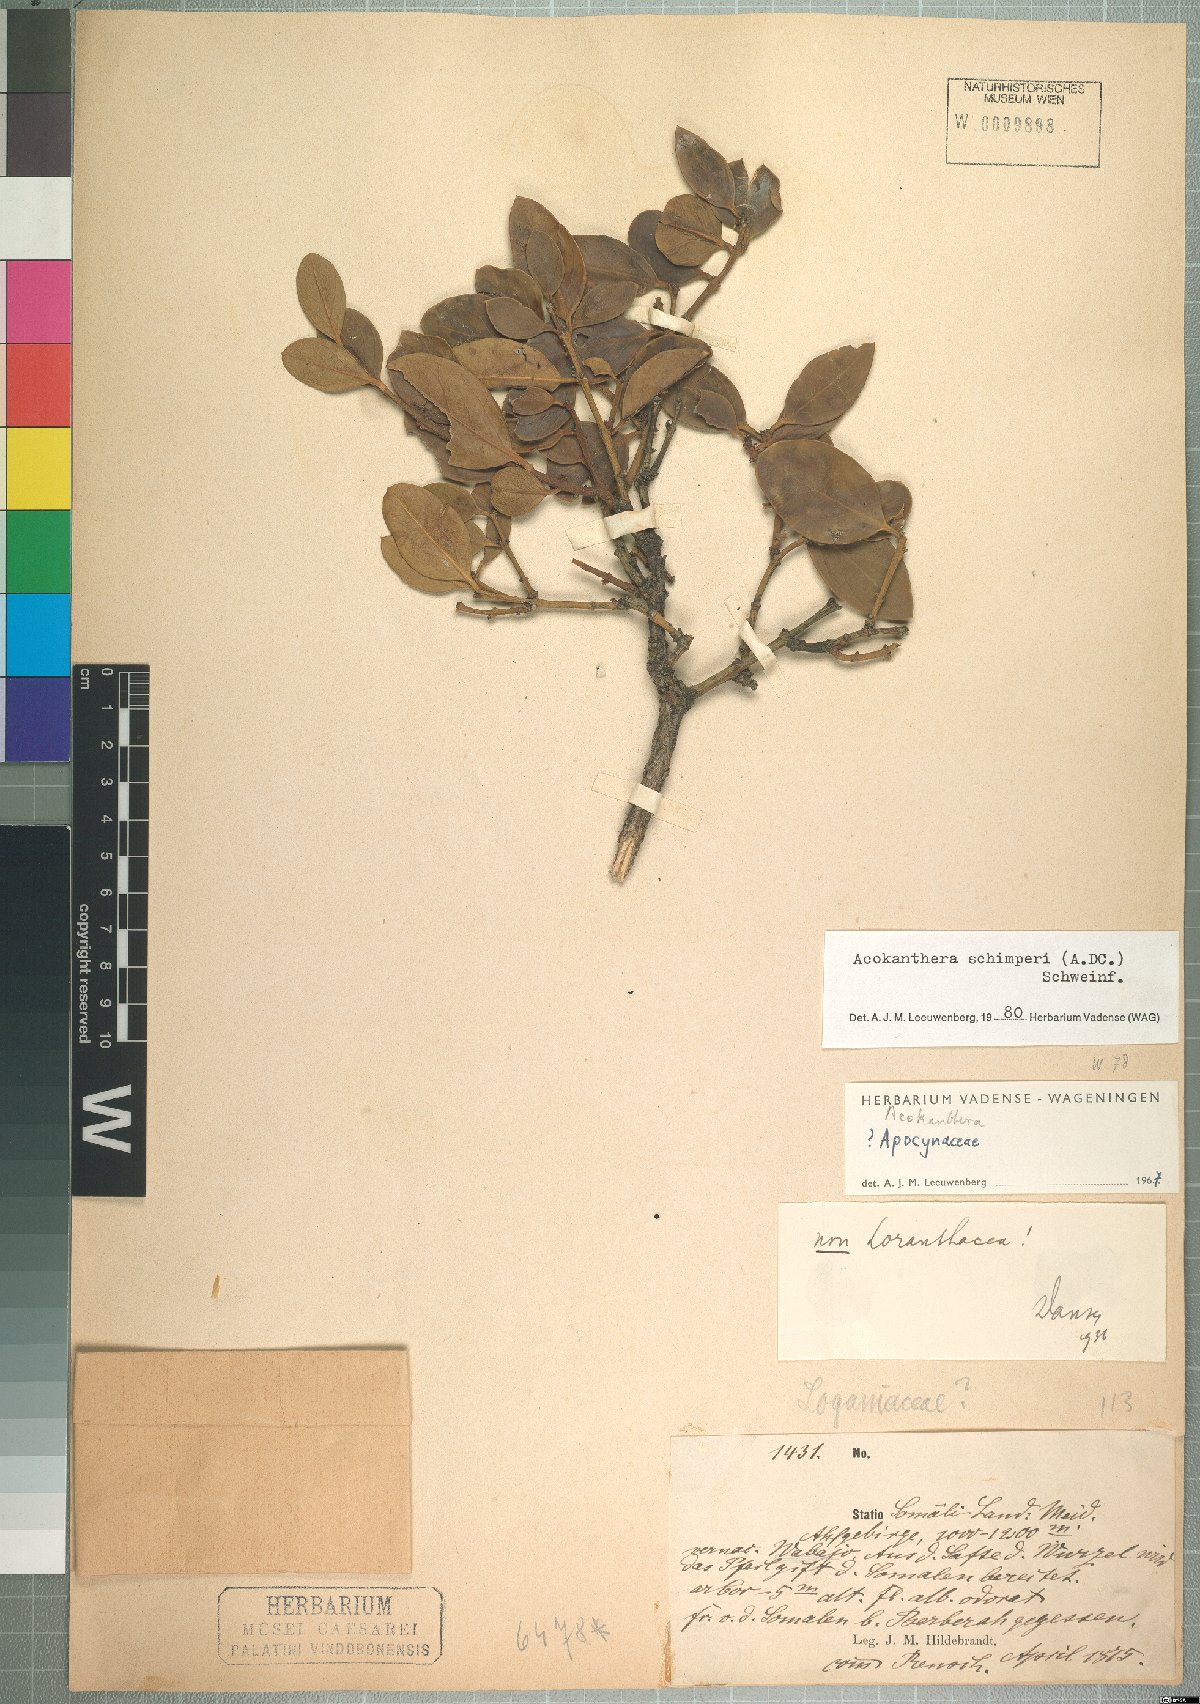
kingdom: Plantae
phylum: Tracheophyta
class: Magnoliopsida
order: Gentianales
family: Apocynaceae
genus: Acokanthera
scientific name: Acokanthera schimperi
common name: Arrow-poison-tree
